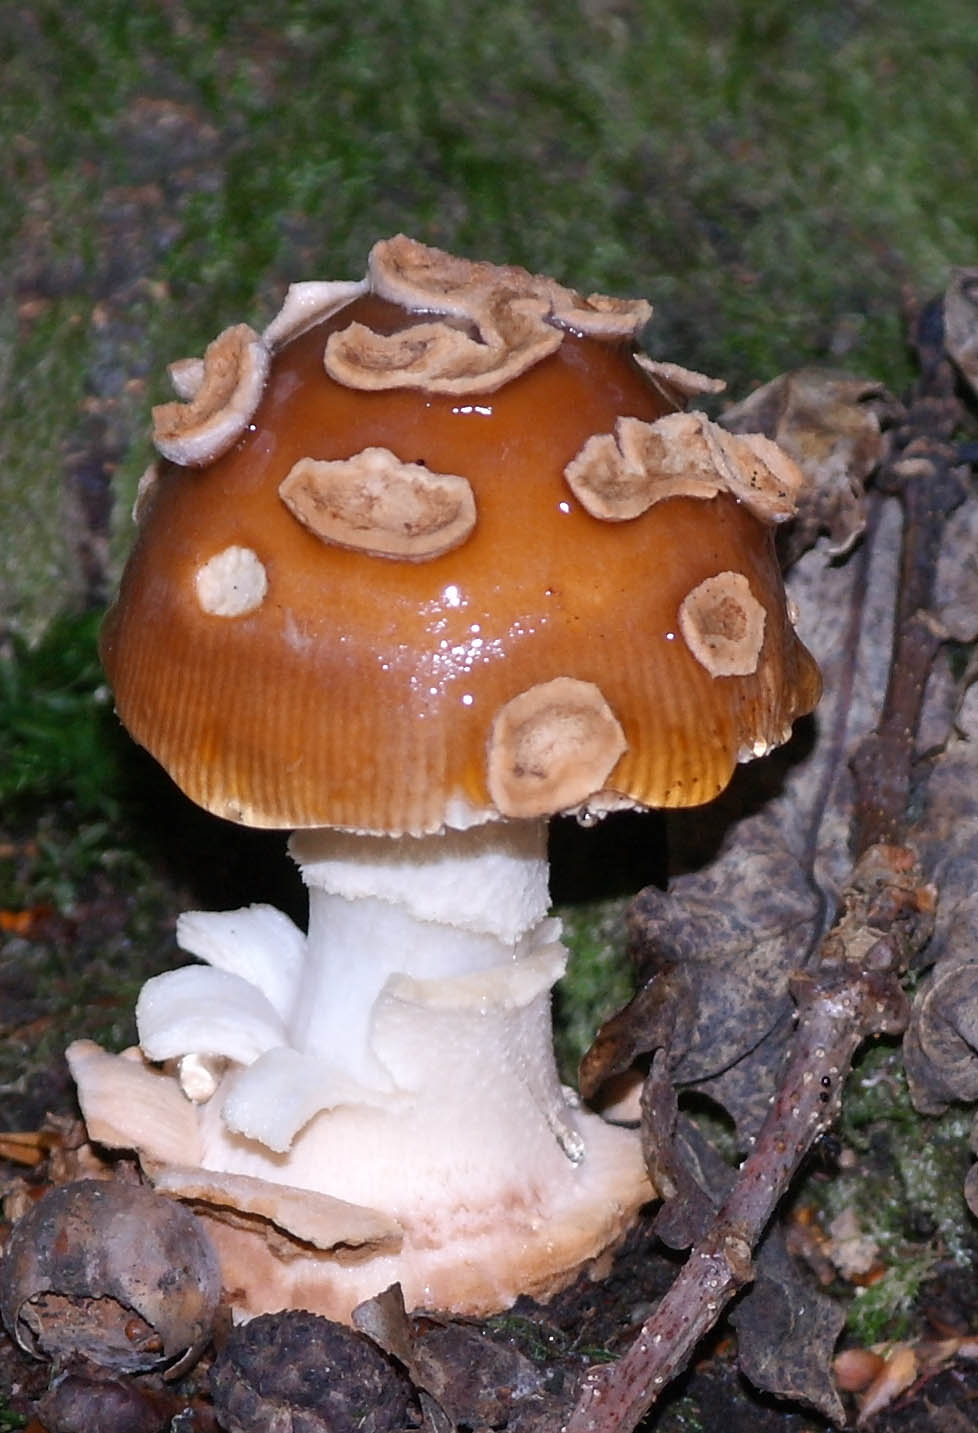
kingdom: Fungi
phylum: Basidiomycota
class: Agaricomycetes
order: Agaricales
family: Amanitaceae
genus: Amanita
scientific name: Amanita fulva
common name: brun kam-fluesvamp
